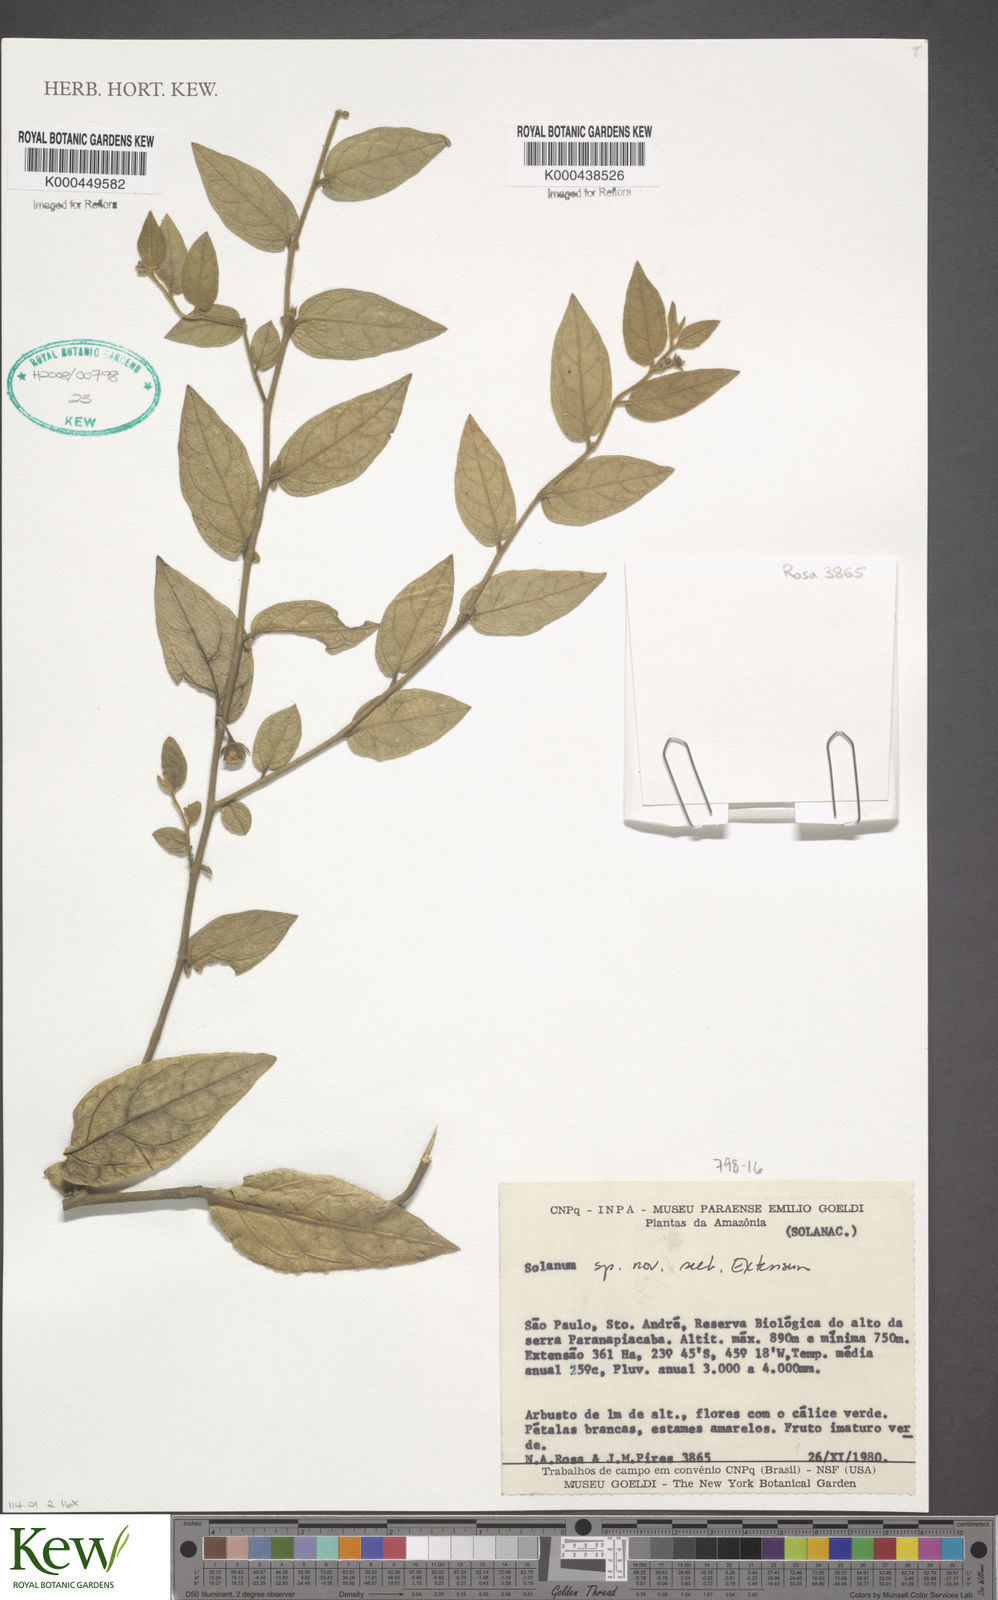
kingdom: Plantae
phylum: Tracheophyta
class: Magnoliopsida
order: Solanales
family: Solanaceae
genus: Solanum
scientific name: Solanum
